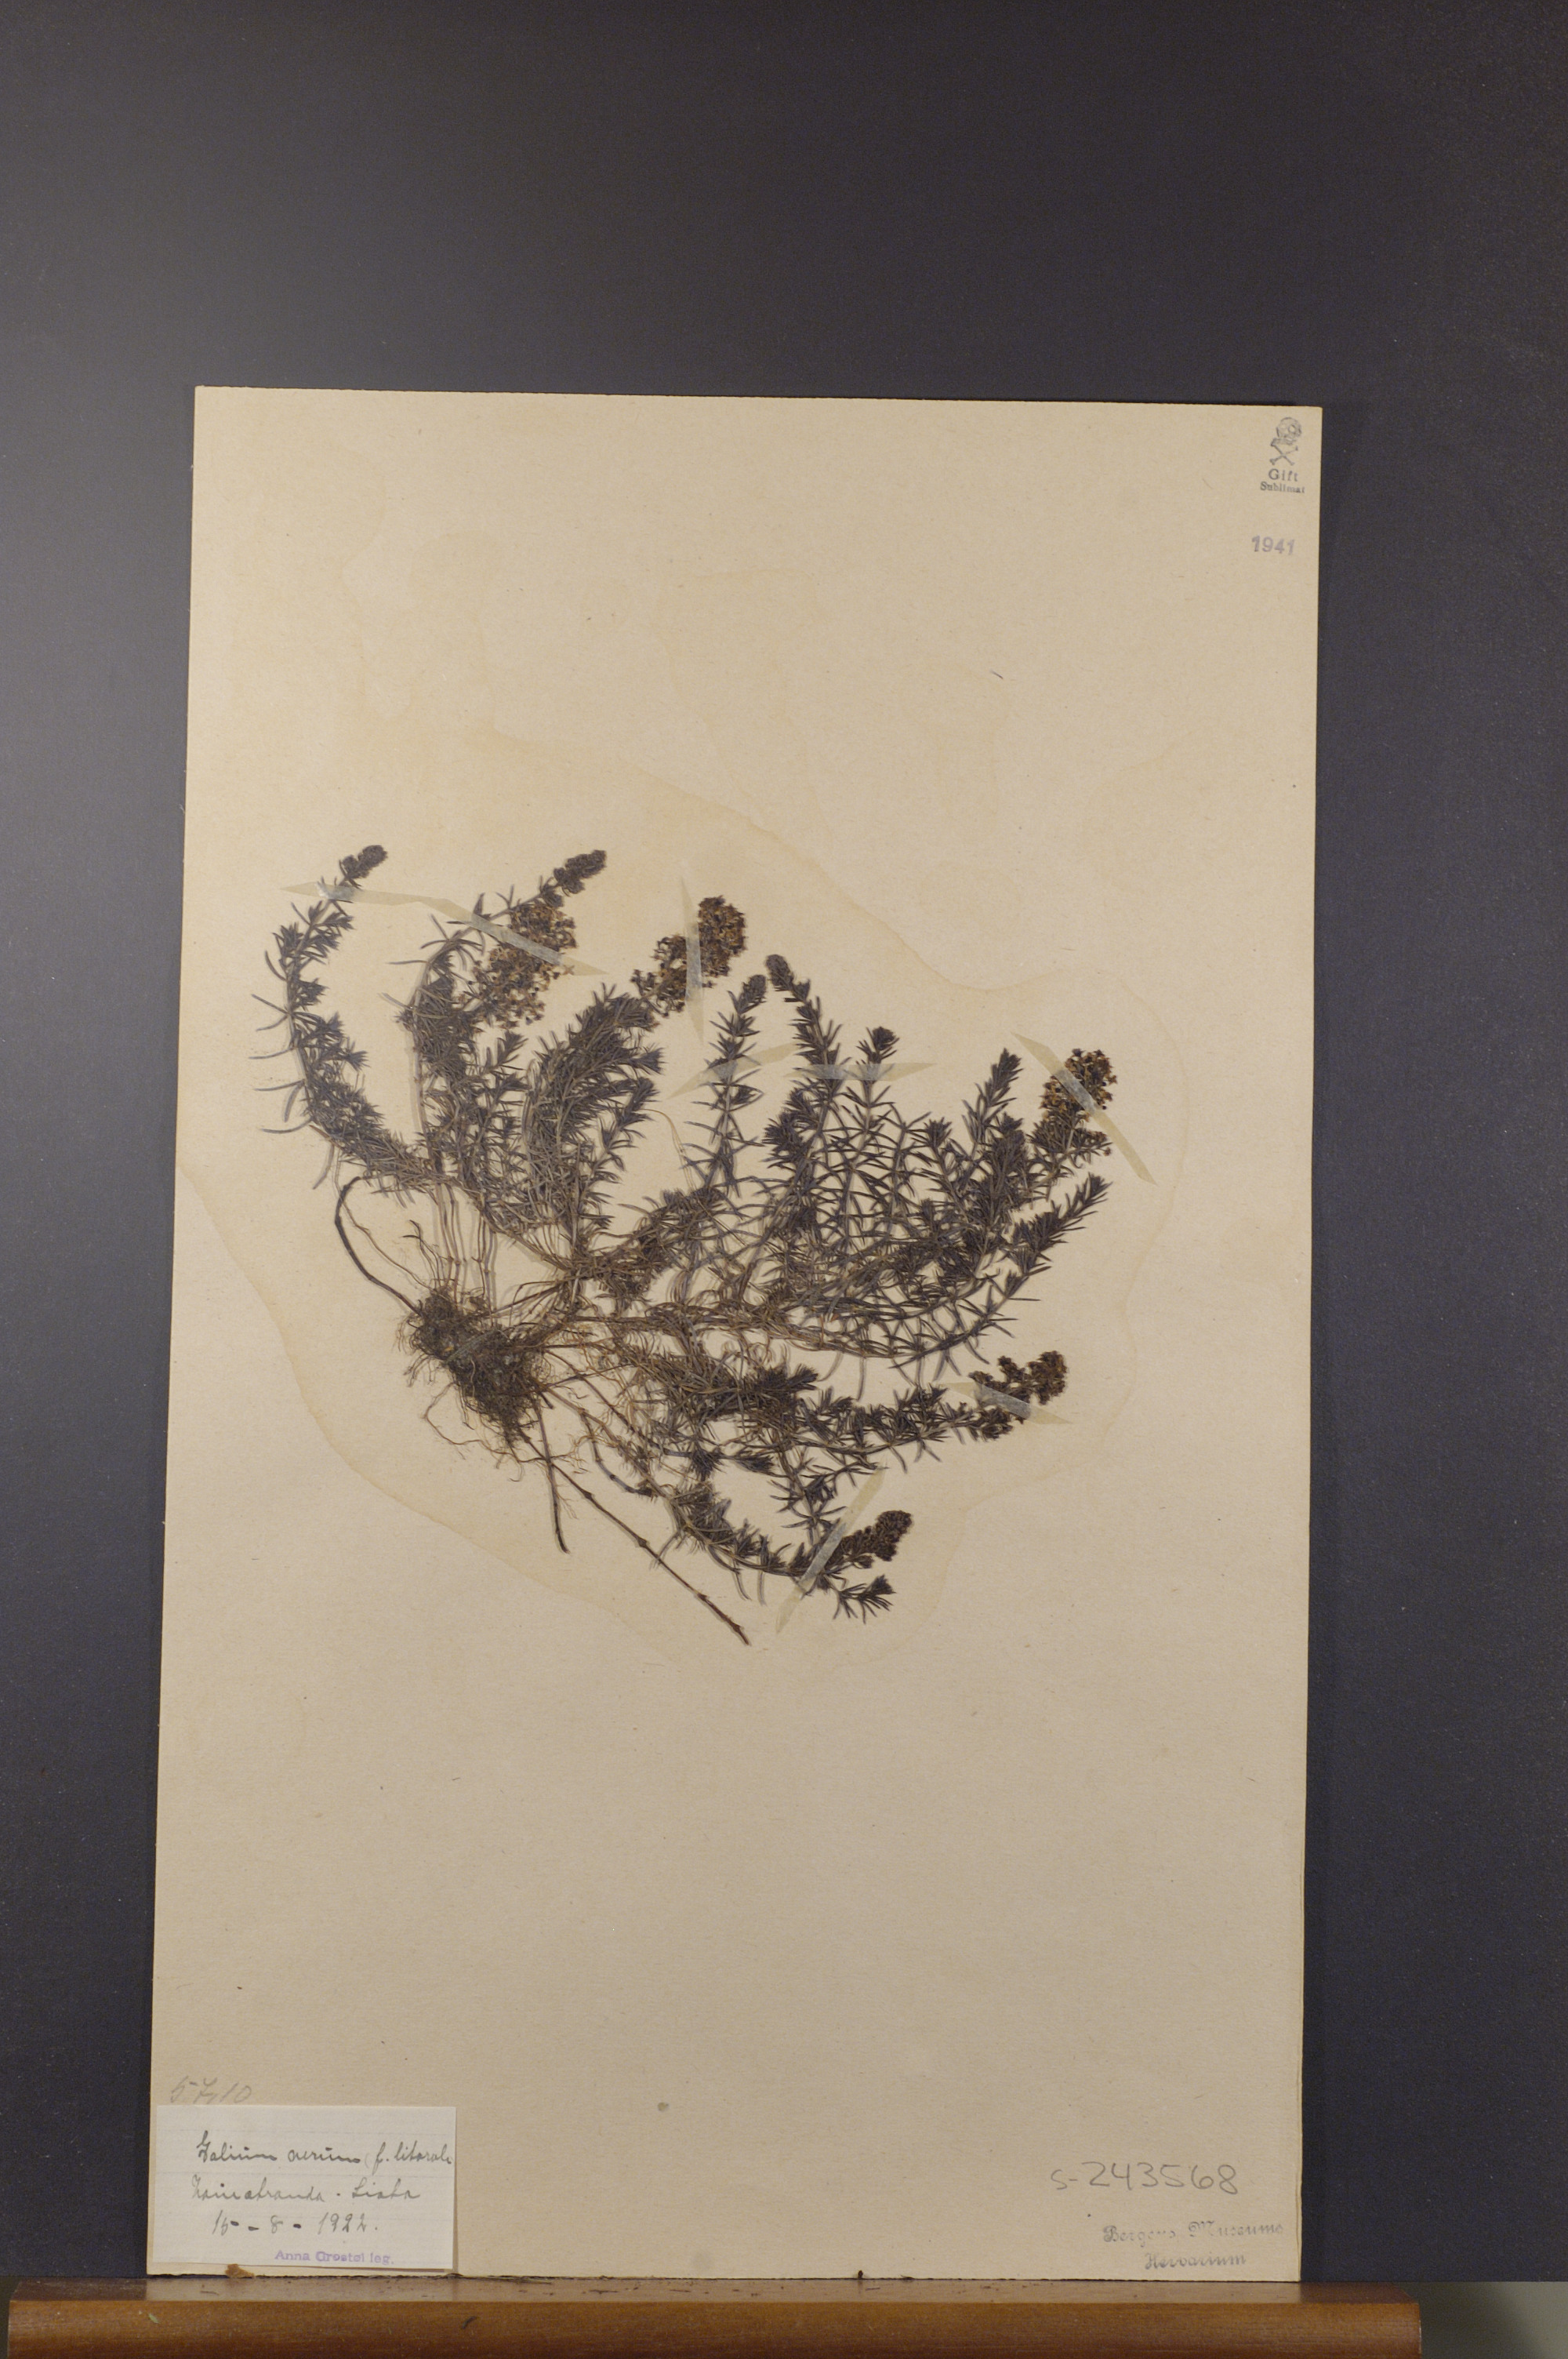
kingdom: Plantae
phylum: Tracheophyta
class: Magnoliopsida
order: Gentianales
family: Rubiaceae
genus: Galium
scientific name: Galium verum
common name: Lady's bedstraw
